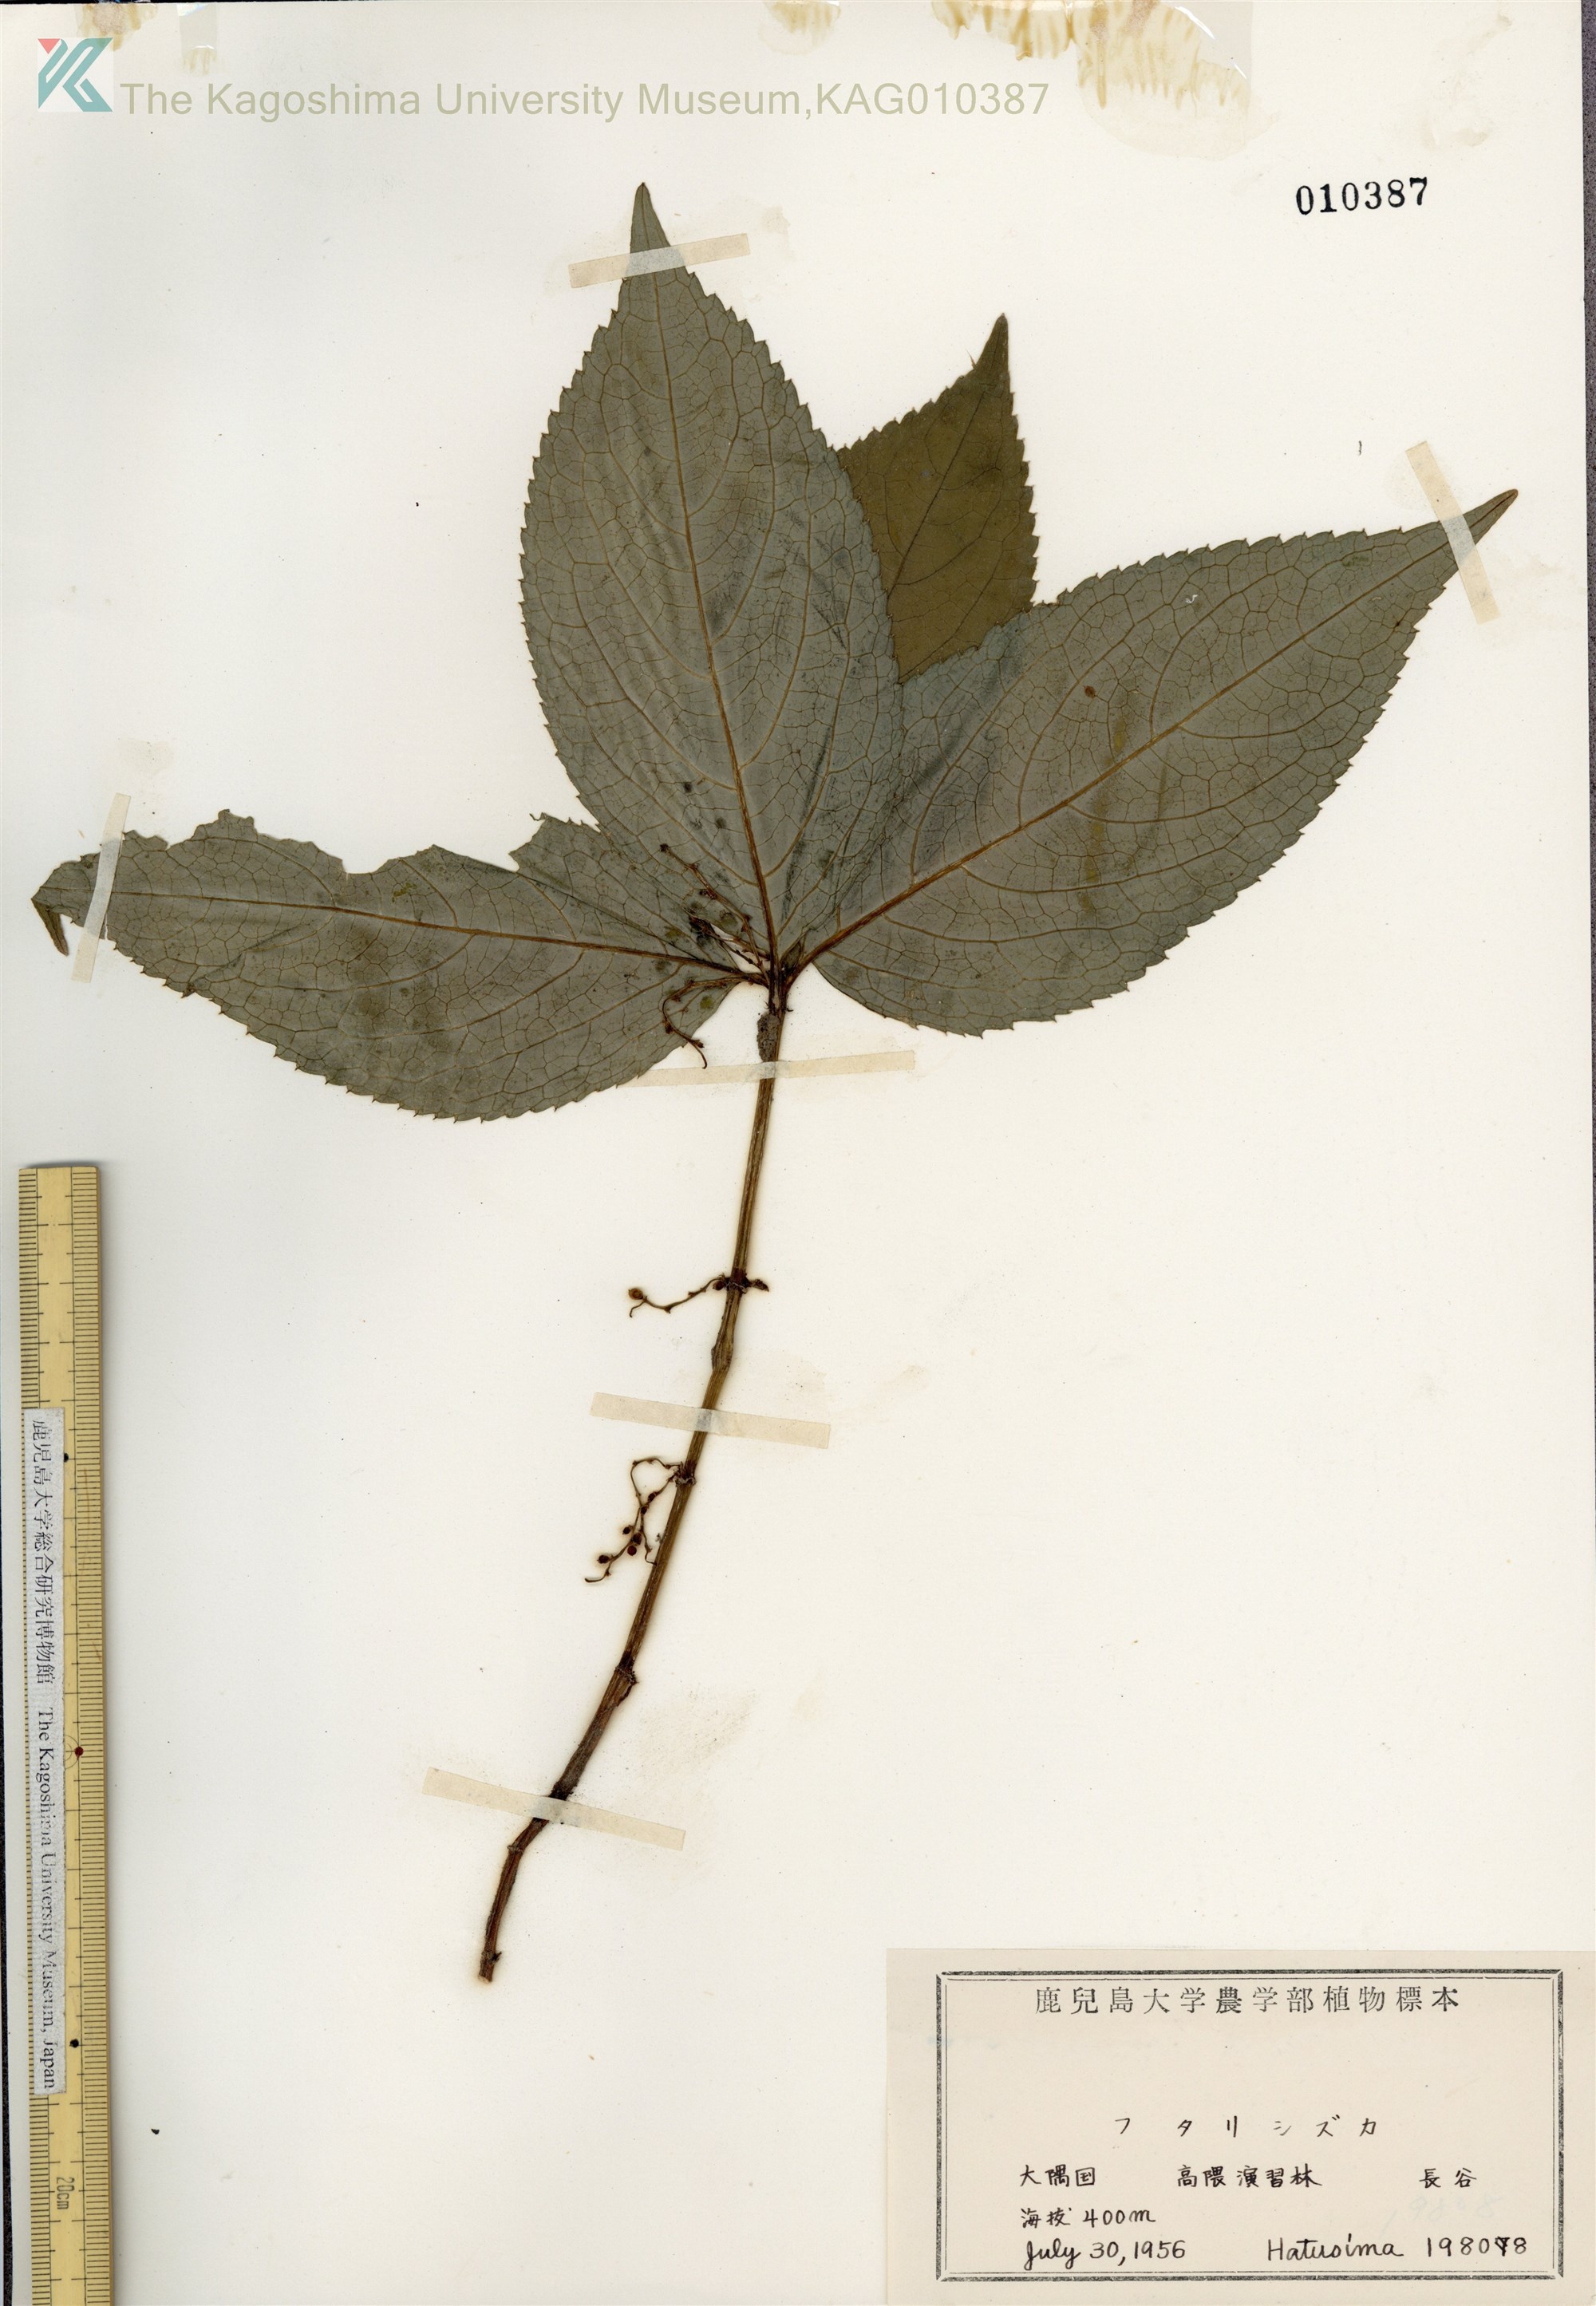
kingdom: Plantae
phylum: Tracheophyta
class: Magnoliopsida
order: Chloranthales
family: Chloranthaceae
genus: Chloranthus
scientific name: Chloranthus serratus
